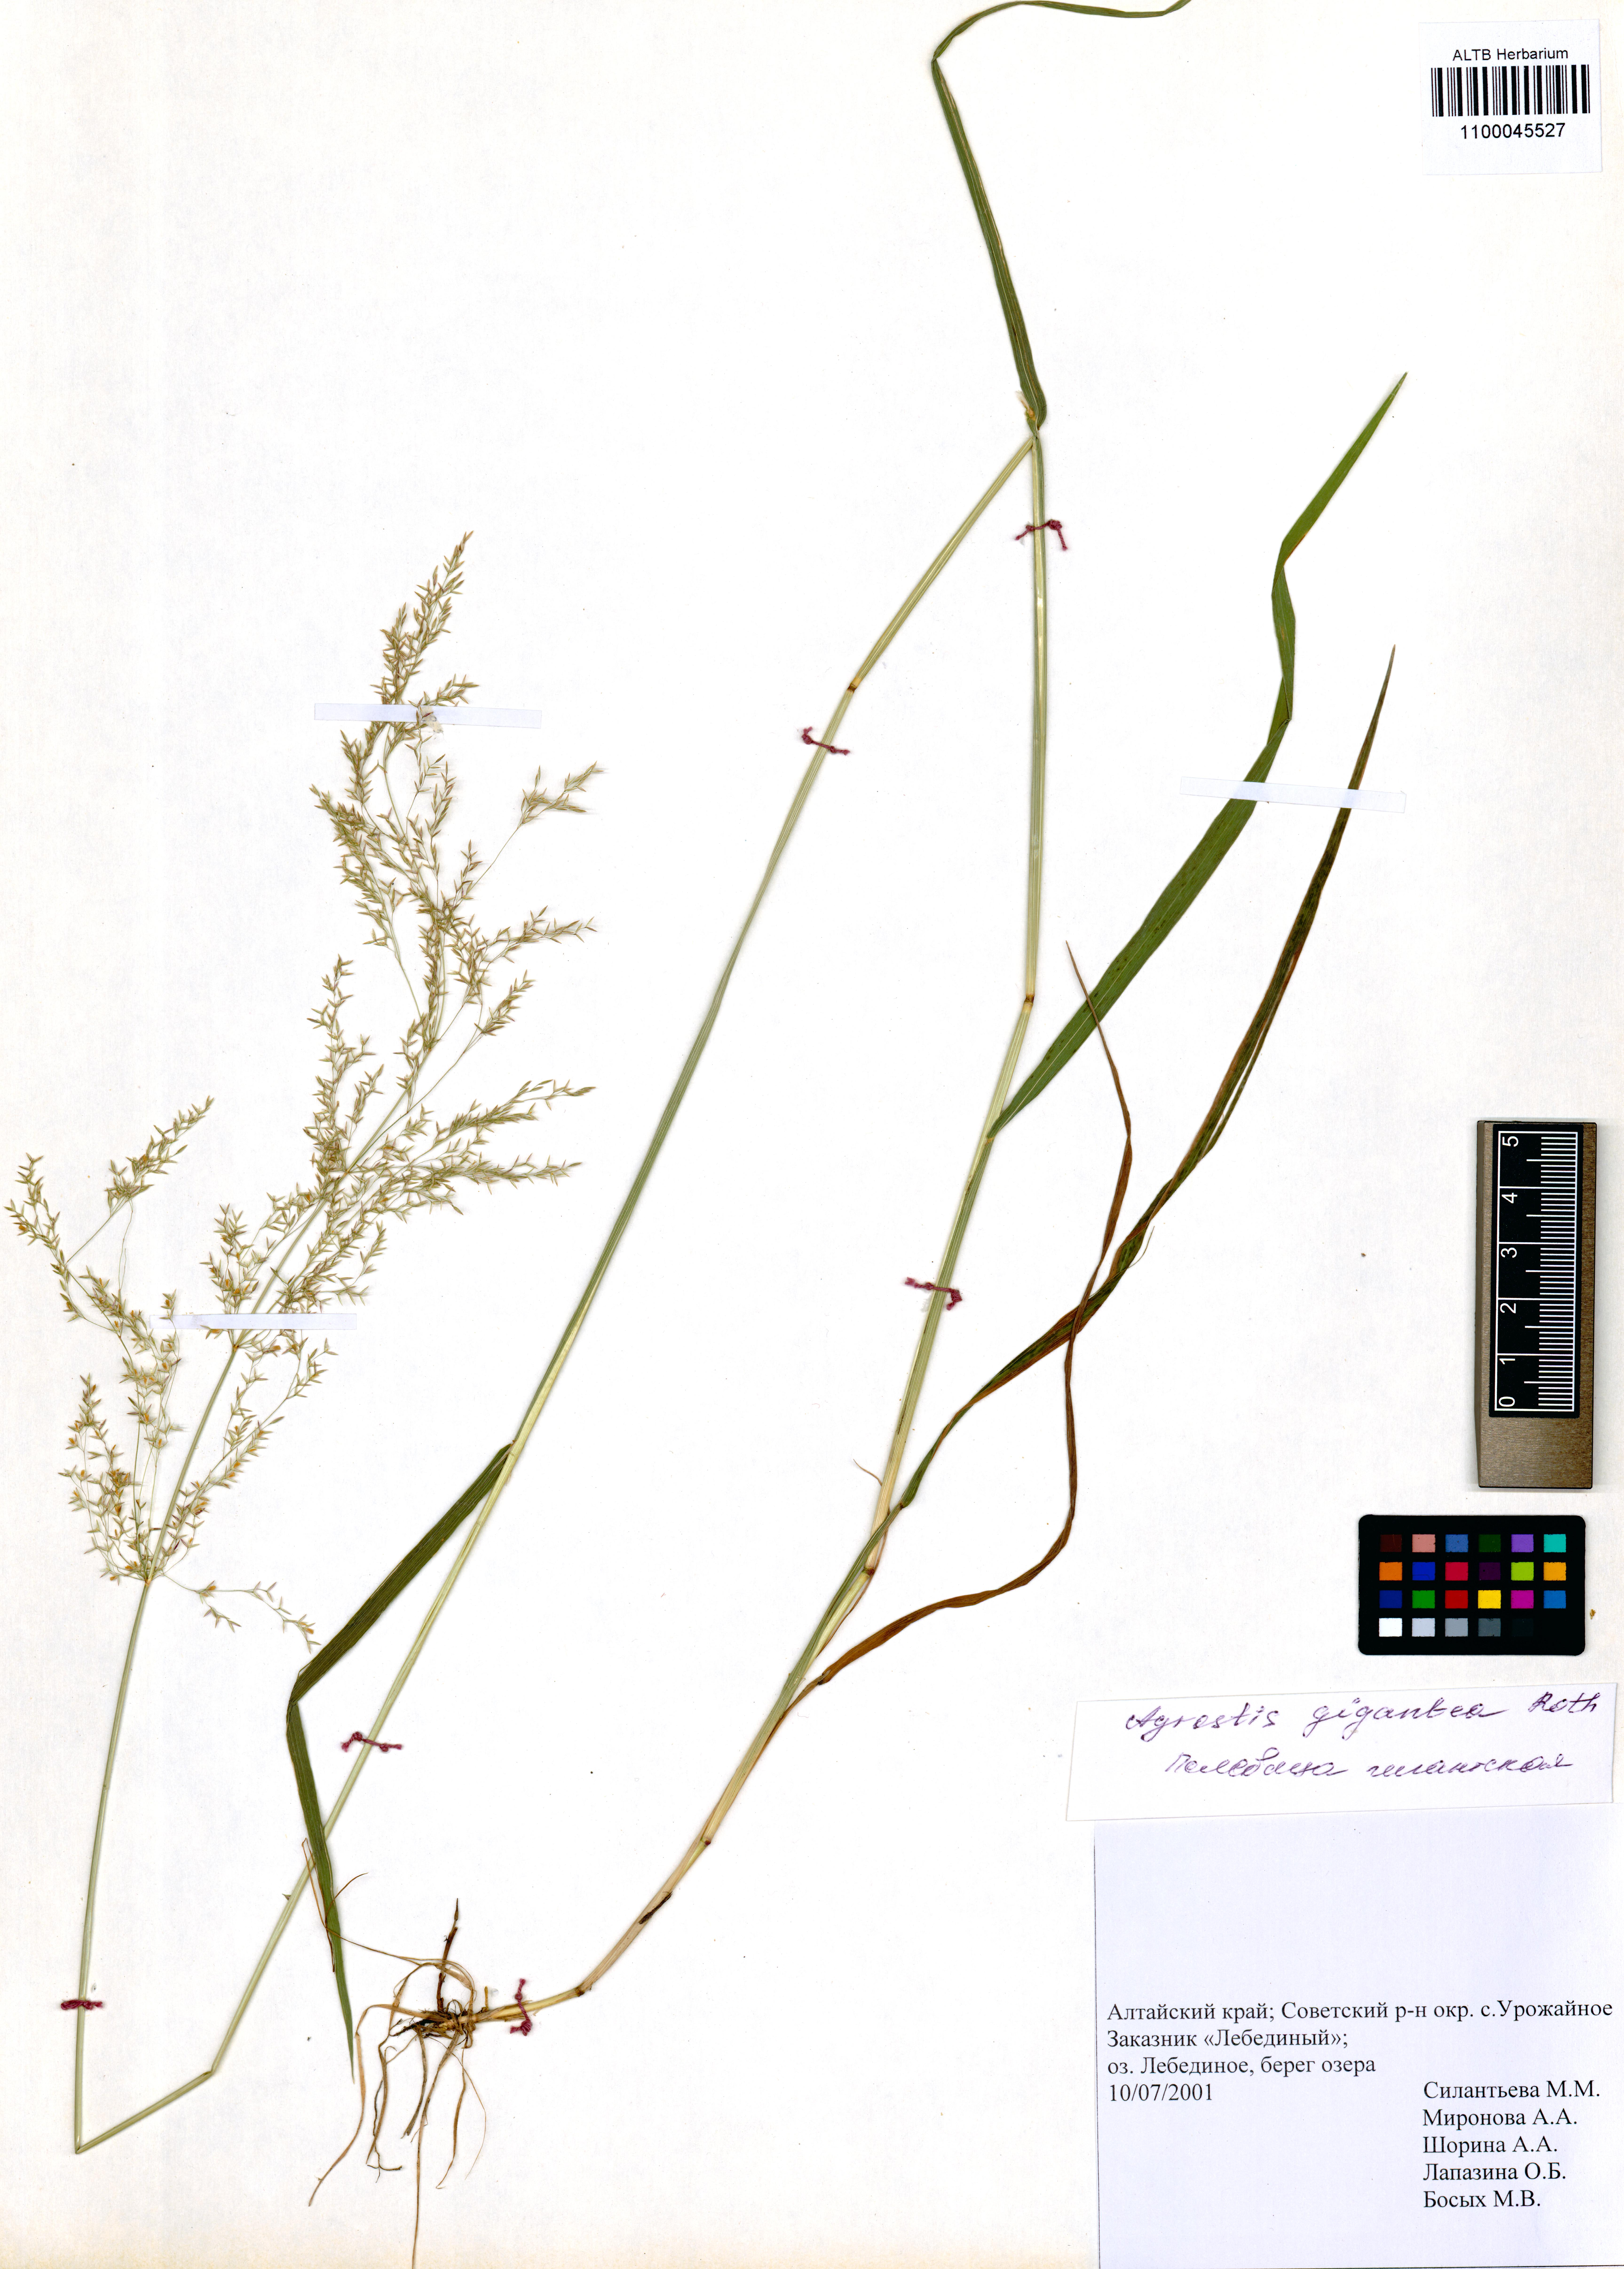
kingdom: Plantae
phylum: Tracheophyta
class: Liliopsida
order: Poales
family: Poaceae
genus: Agrostis
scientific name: Agrostis gigantea
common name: Black bent
